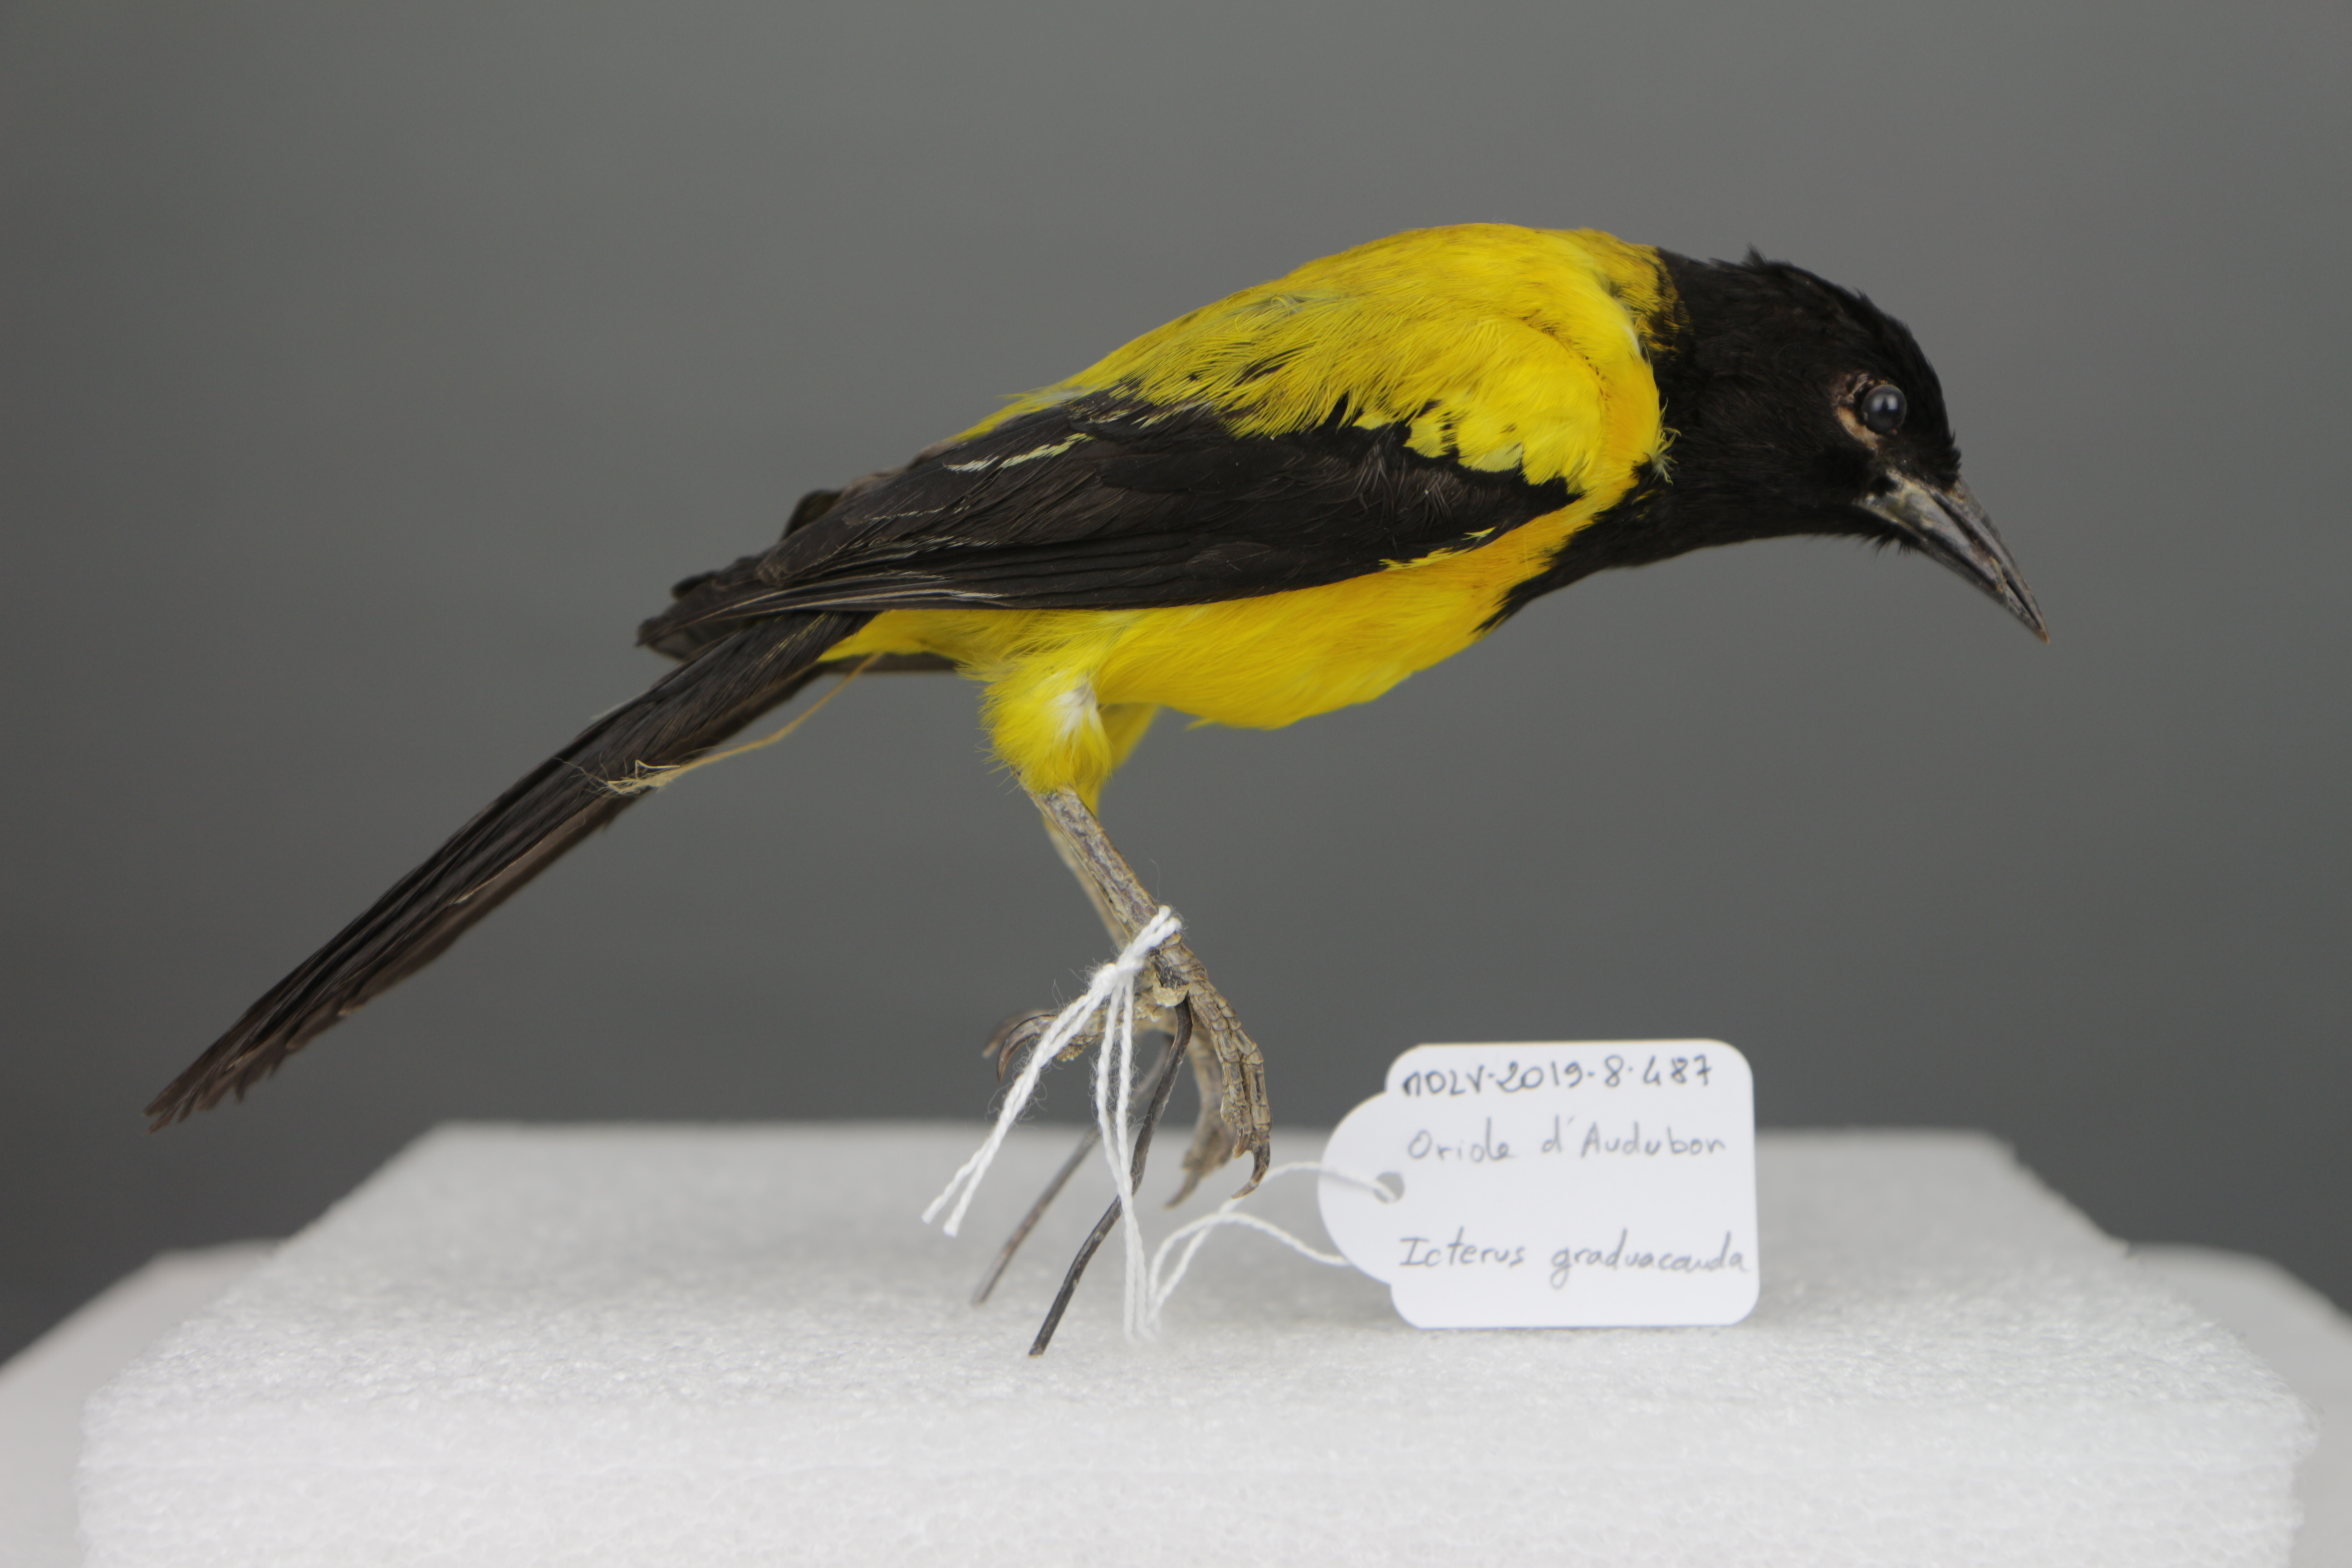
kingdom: Animalia
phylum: Chordata
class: Aves
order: Passeriformes
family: Icteridae
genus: Icterus
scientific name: Icterus graduacauda
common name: Audubon's oriole
